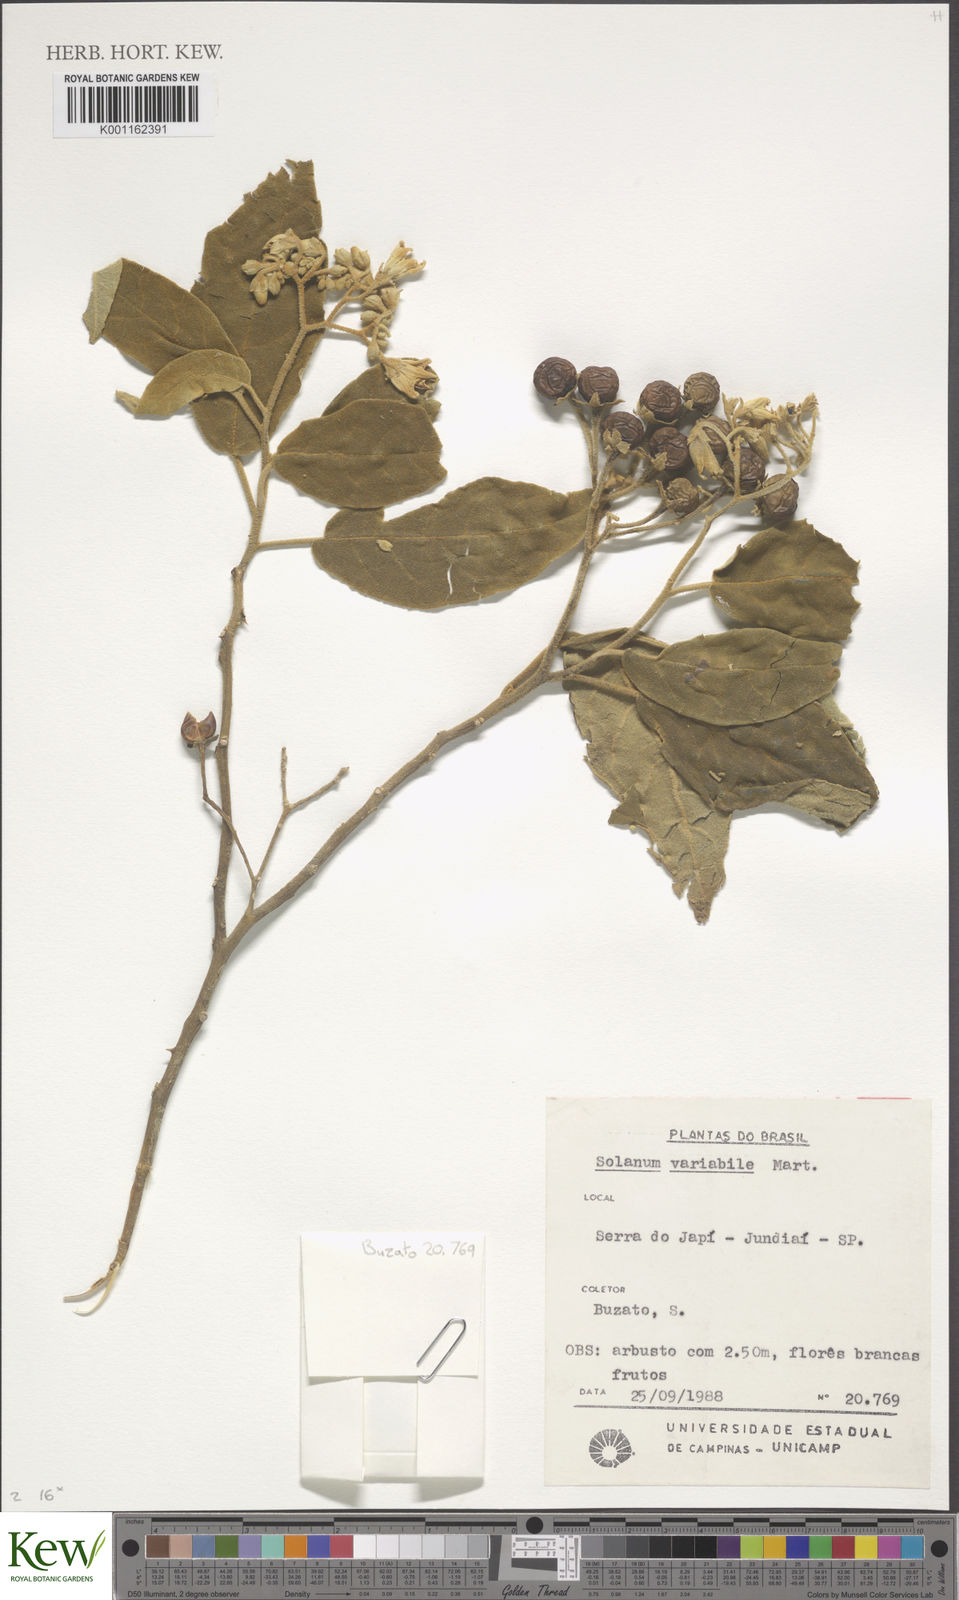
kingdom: Plantae
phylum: Tracheophyta
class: Magnoliopsida
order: Solanales
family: Solanaceae
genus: Solanum
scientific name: Solanum variabile
